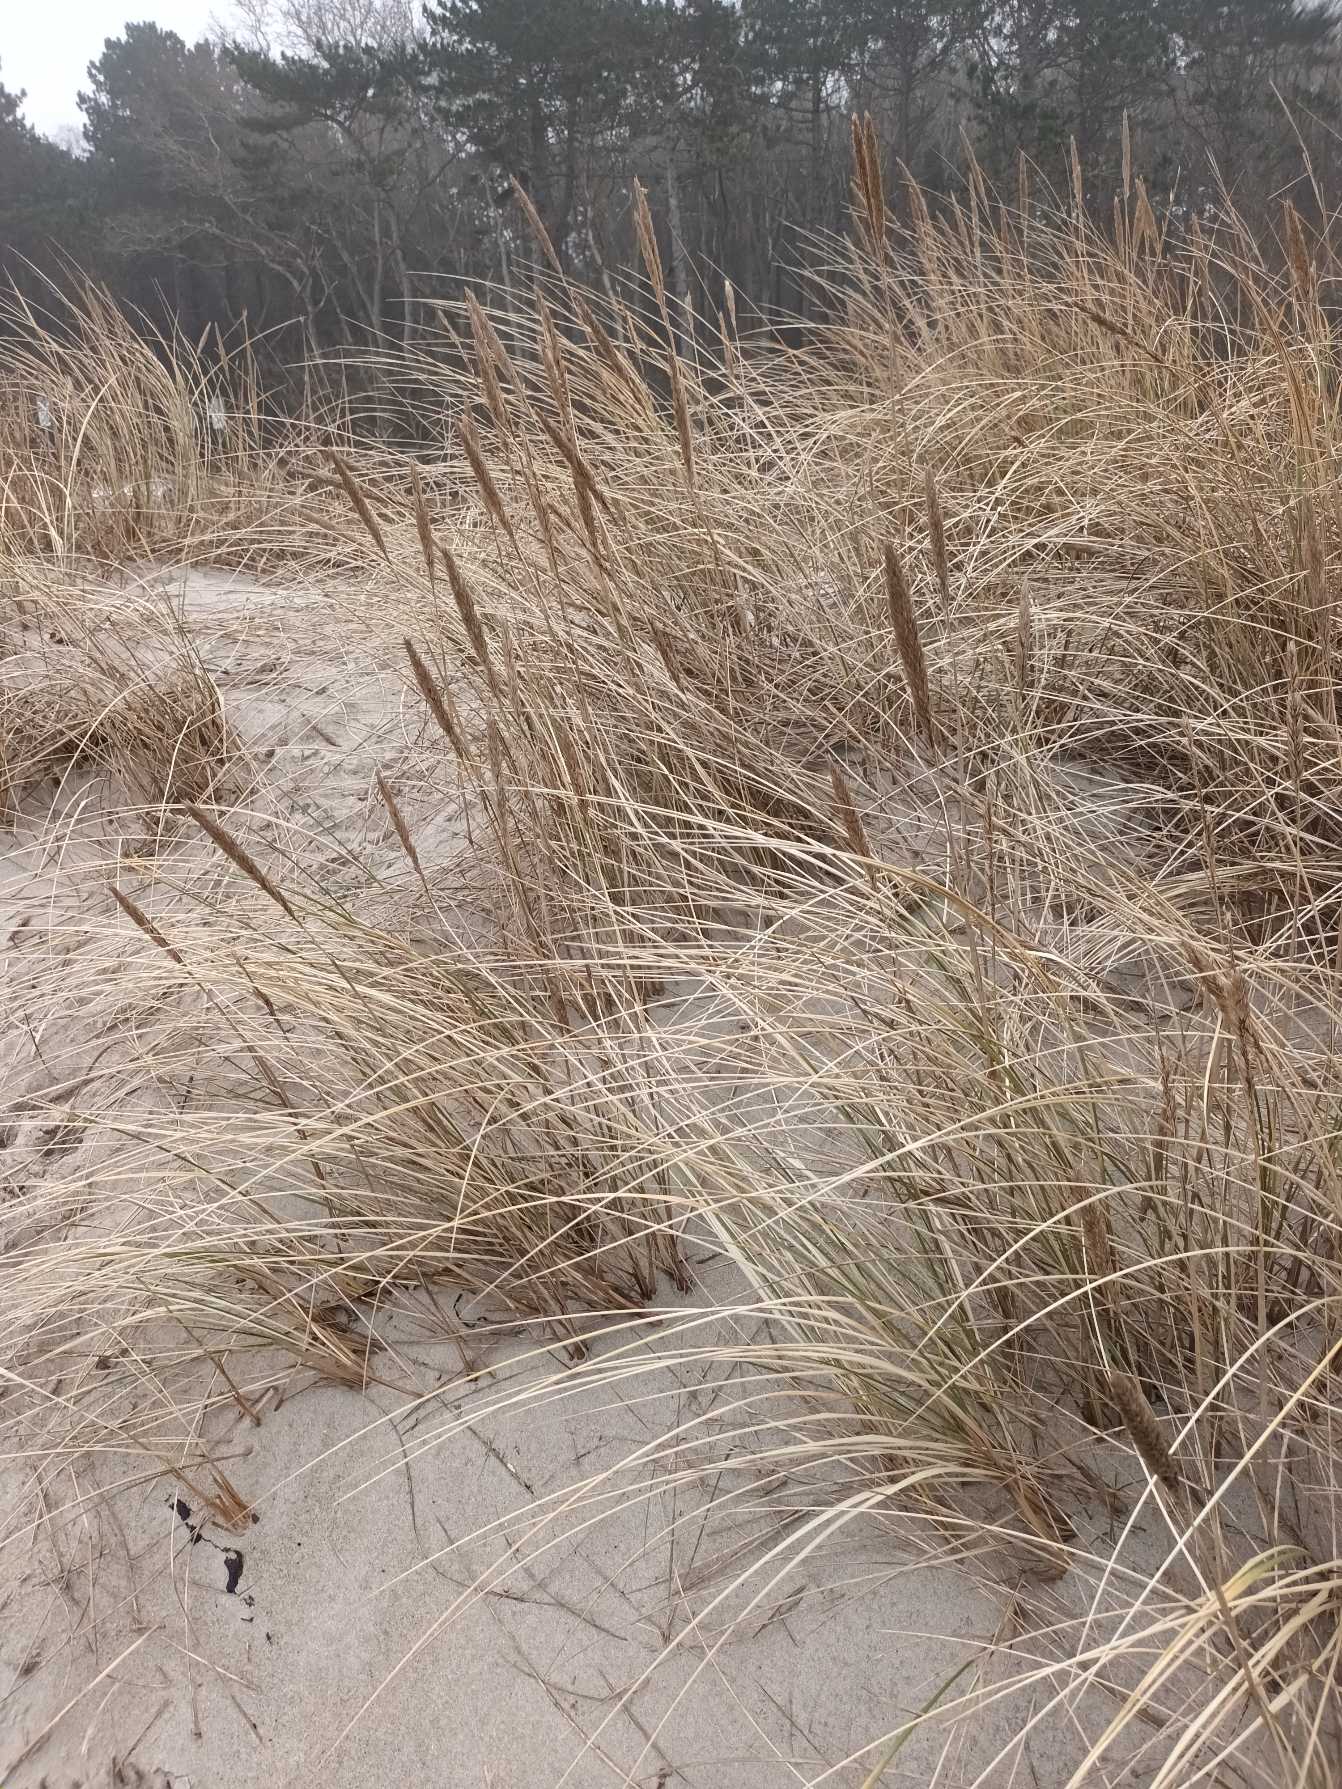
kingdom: Plantae
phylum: Tracheophyta
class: Liliopsida
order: Poales
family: Poaceae
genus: Calamagrostis
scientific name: Calamagrostis arenaria
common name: Sand-hjælme
